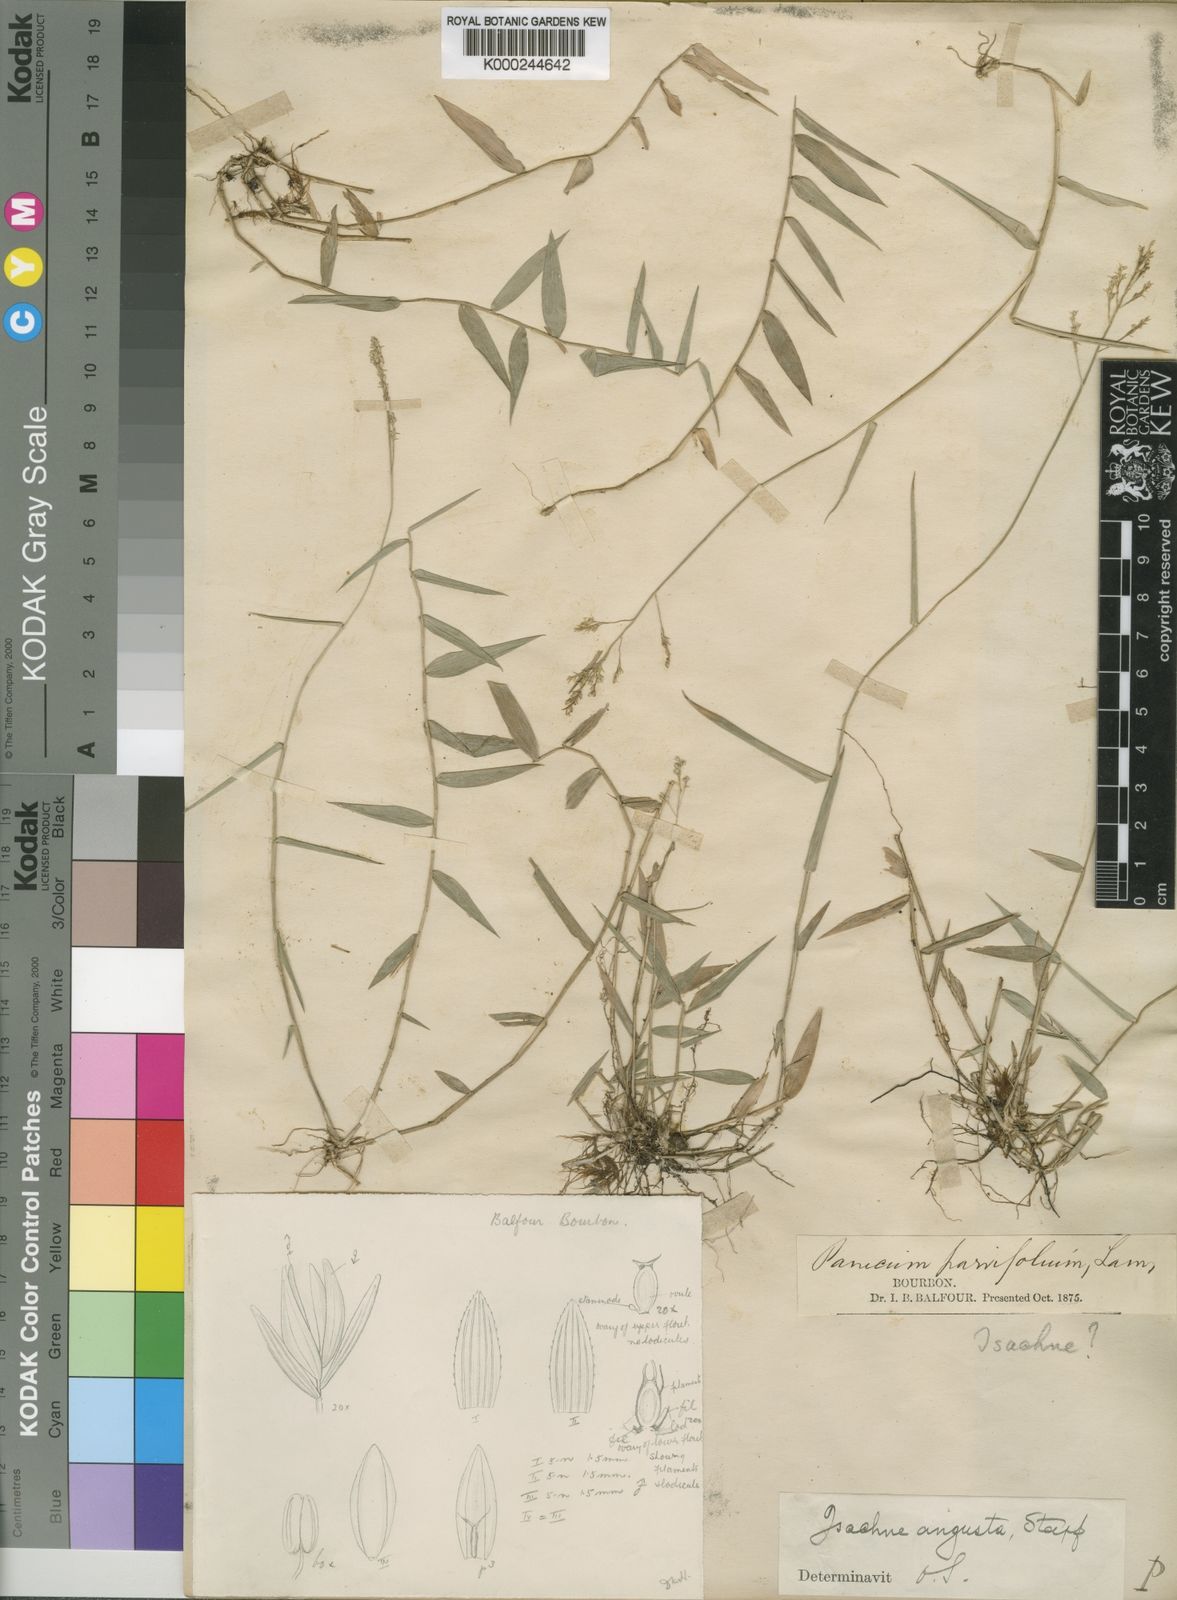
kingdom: Plantae
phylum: Tracheophyta
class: Liliopsida
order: Poales
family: Poaceae
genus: Isachne
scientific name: Isachne homonyma
